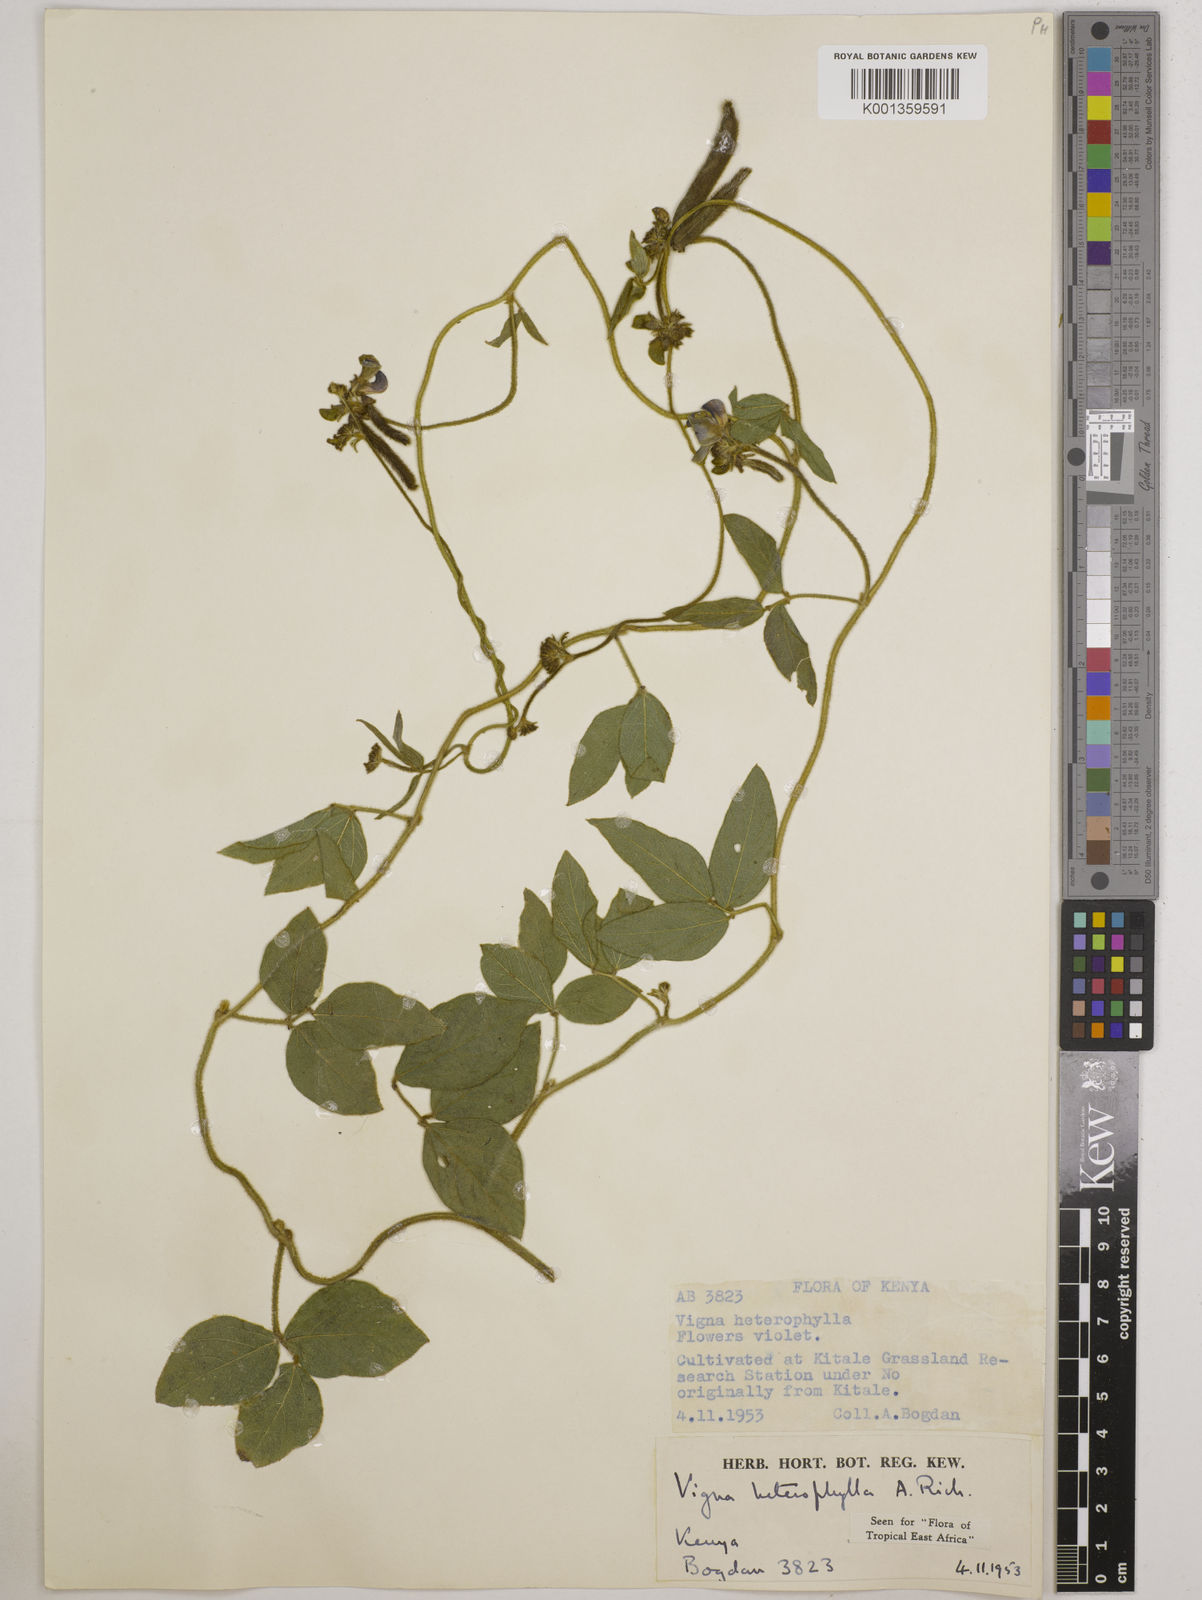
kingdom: Plantae
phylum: Tracheophyta
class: Magnoliopsida
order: Fabales
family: Fabaceae
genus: Vigna
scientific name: Vigna heterophylla
